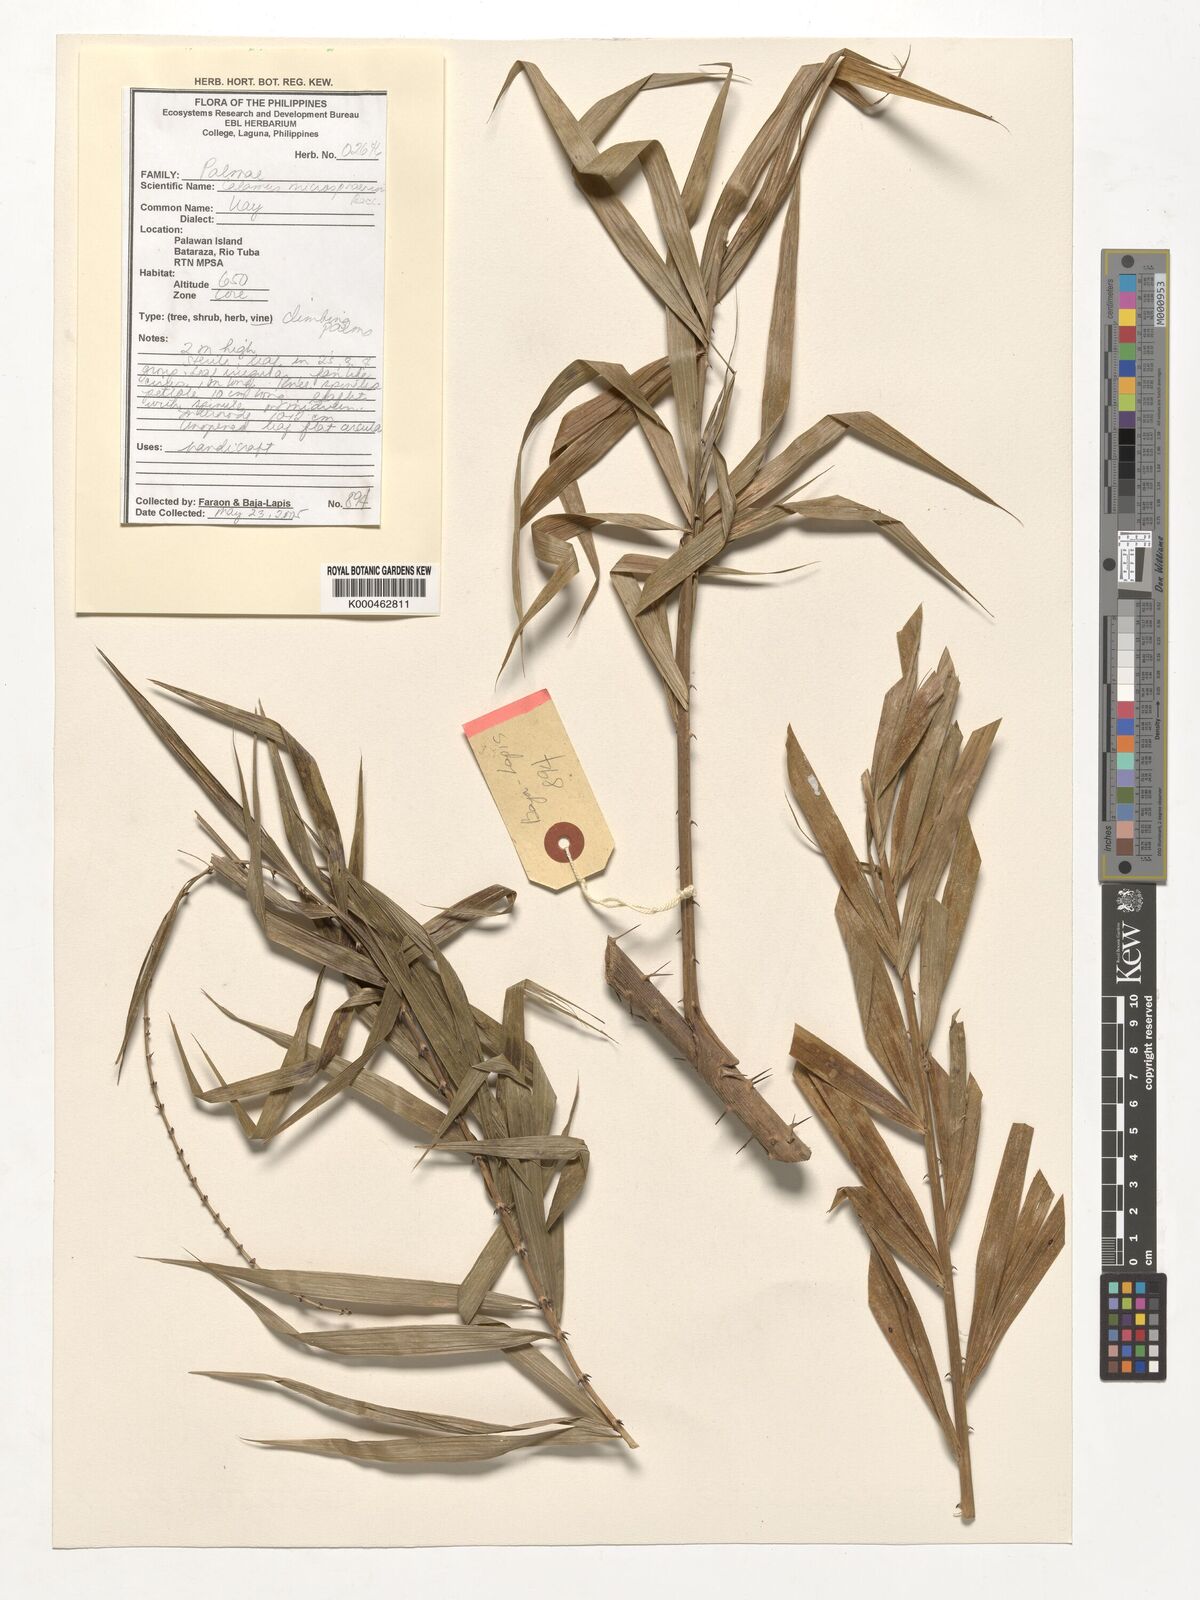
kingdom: Plantae
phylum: Tracheophyta
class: Liliopsida
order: Arecales
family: Arecaceae
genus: Calamus
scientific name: Calamus microsphaerion
